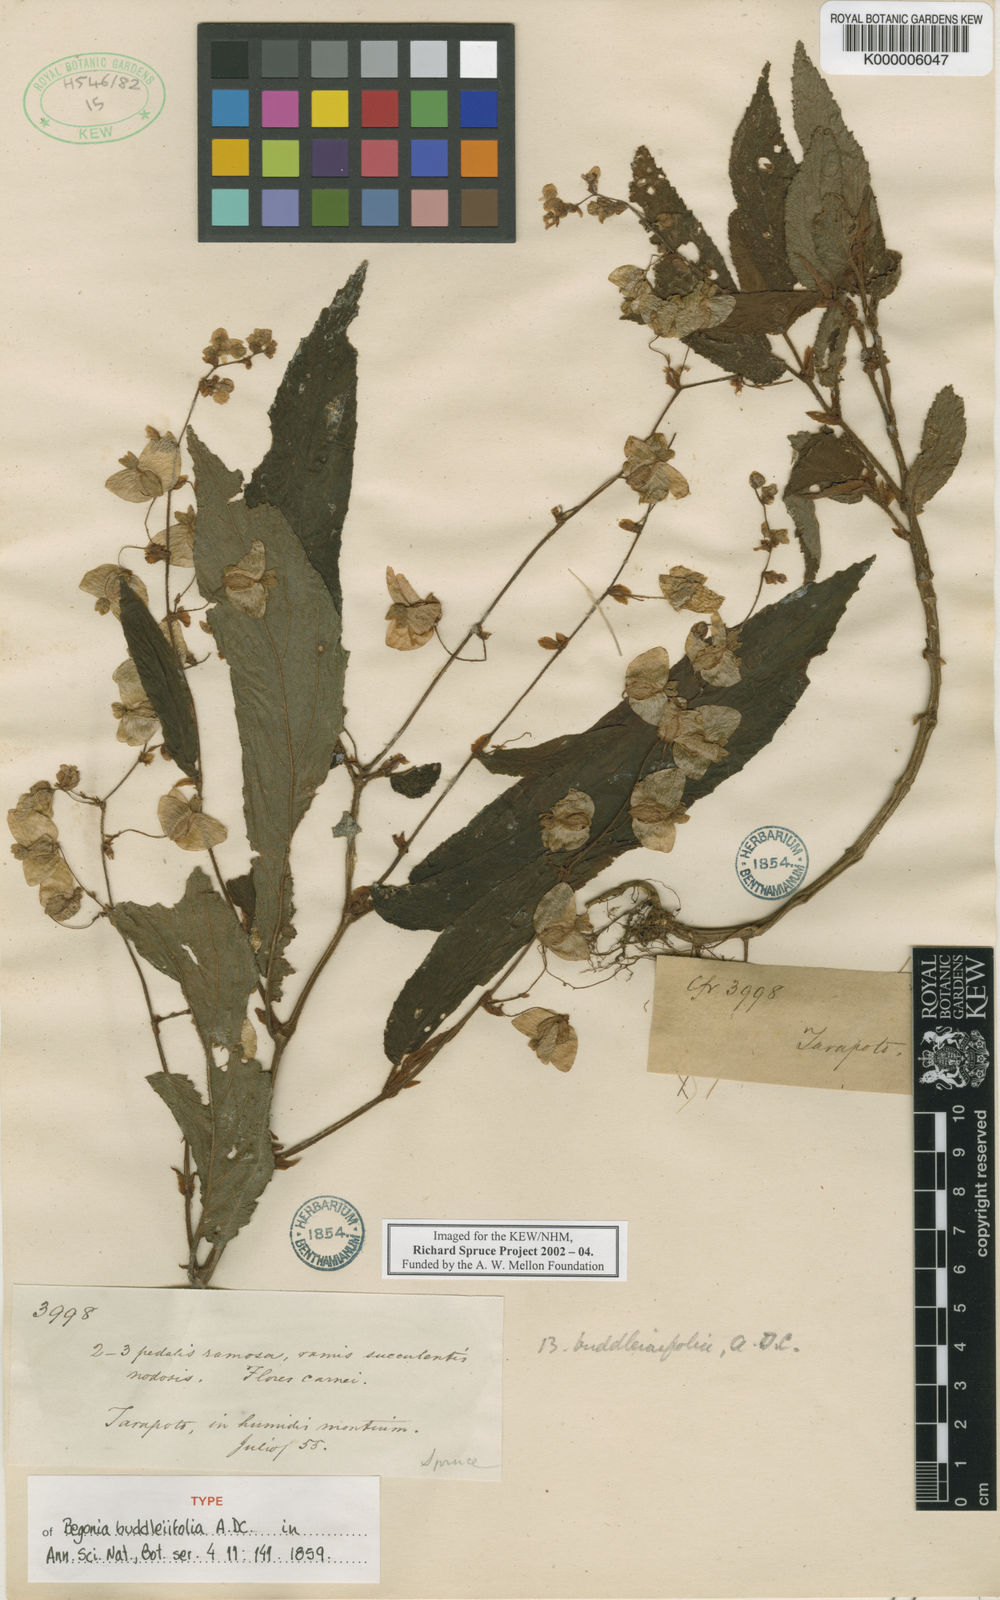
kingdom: Plantae
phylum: Tracheophyta
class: Magnoliopsida
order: Cucurbitales
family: Begoniaceae
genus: Begonia
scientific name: Begonia buddleiifolia
